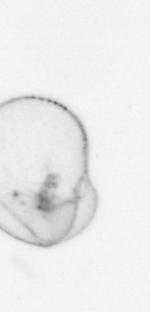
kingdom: Chromista
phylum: Myzozoa
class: Dinophyceae
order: Noctilucales
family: Noctilucaceae
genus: Noctiluca
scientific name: Noctiluca scintillans
